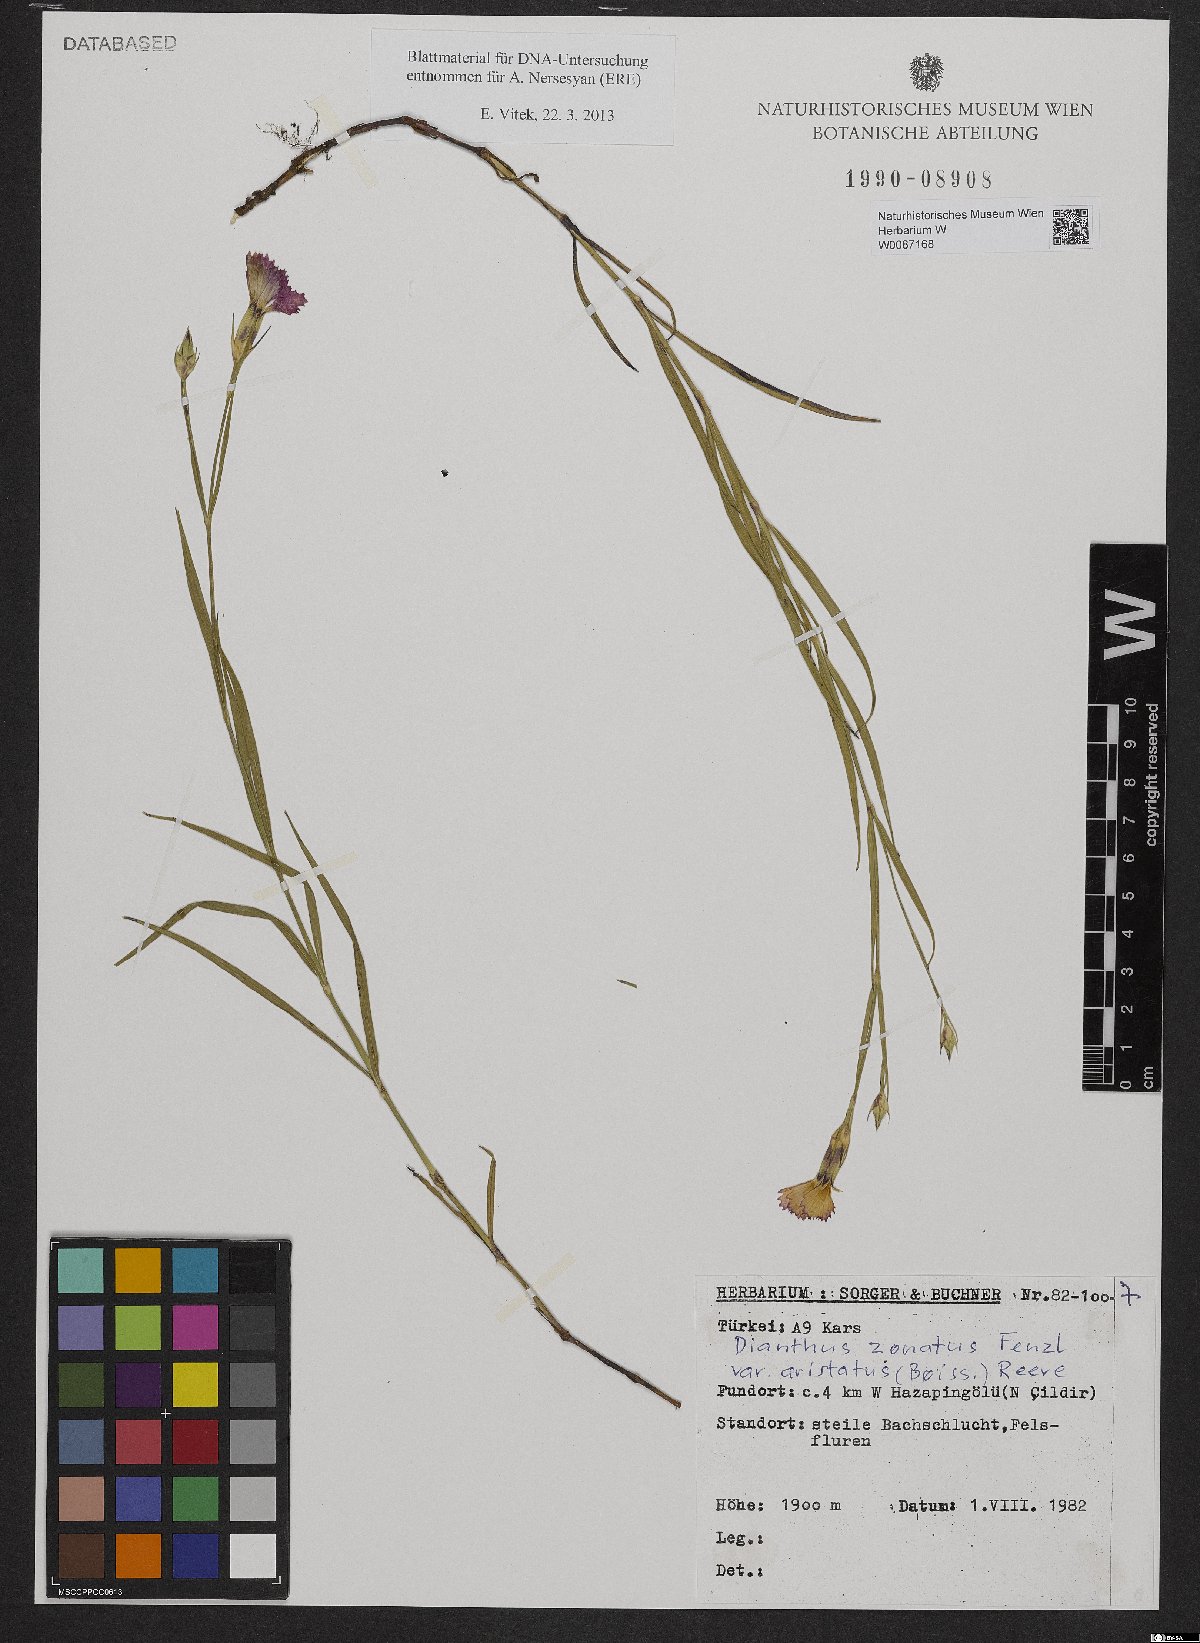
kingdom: Plantae
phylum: Tracheophyta
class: Magnoliopsida
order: Caryophyllales
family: Caryophyllaceae
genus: Dianthus
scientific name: Dianthus aristatus
